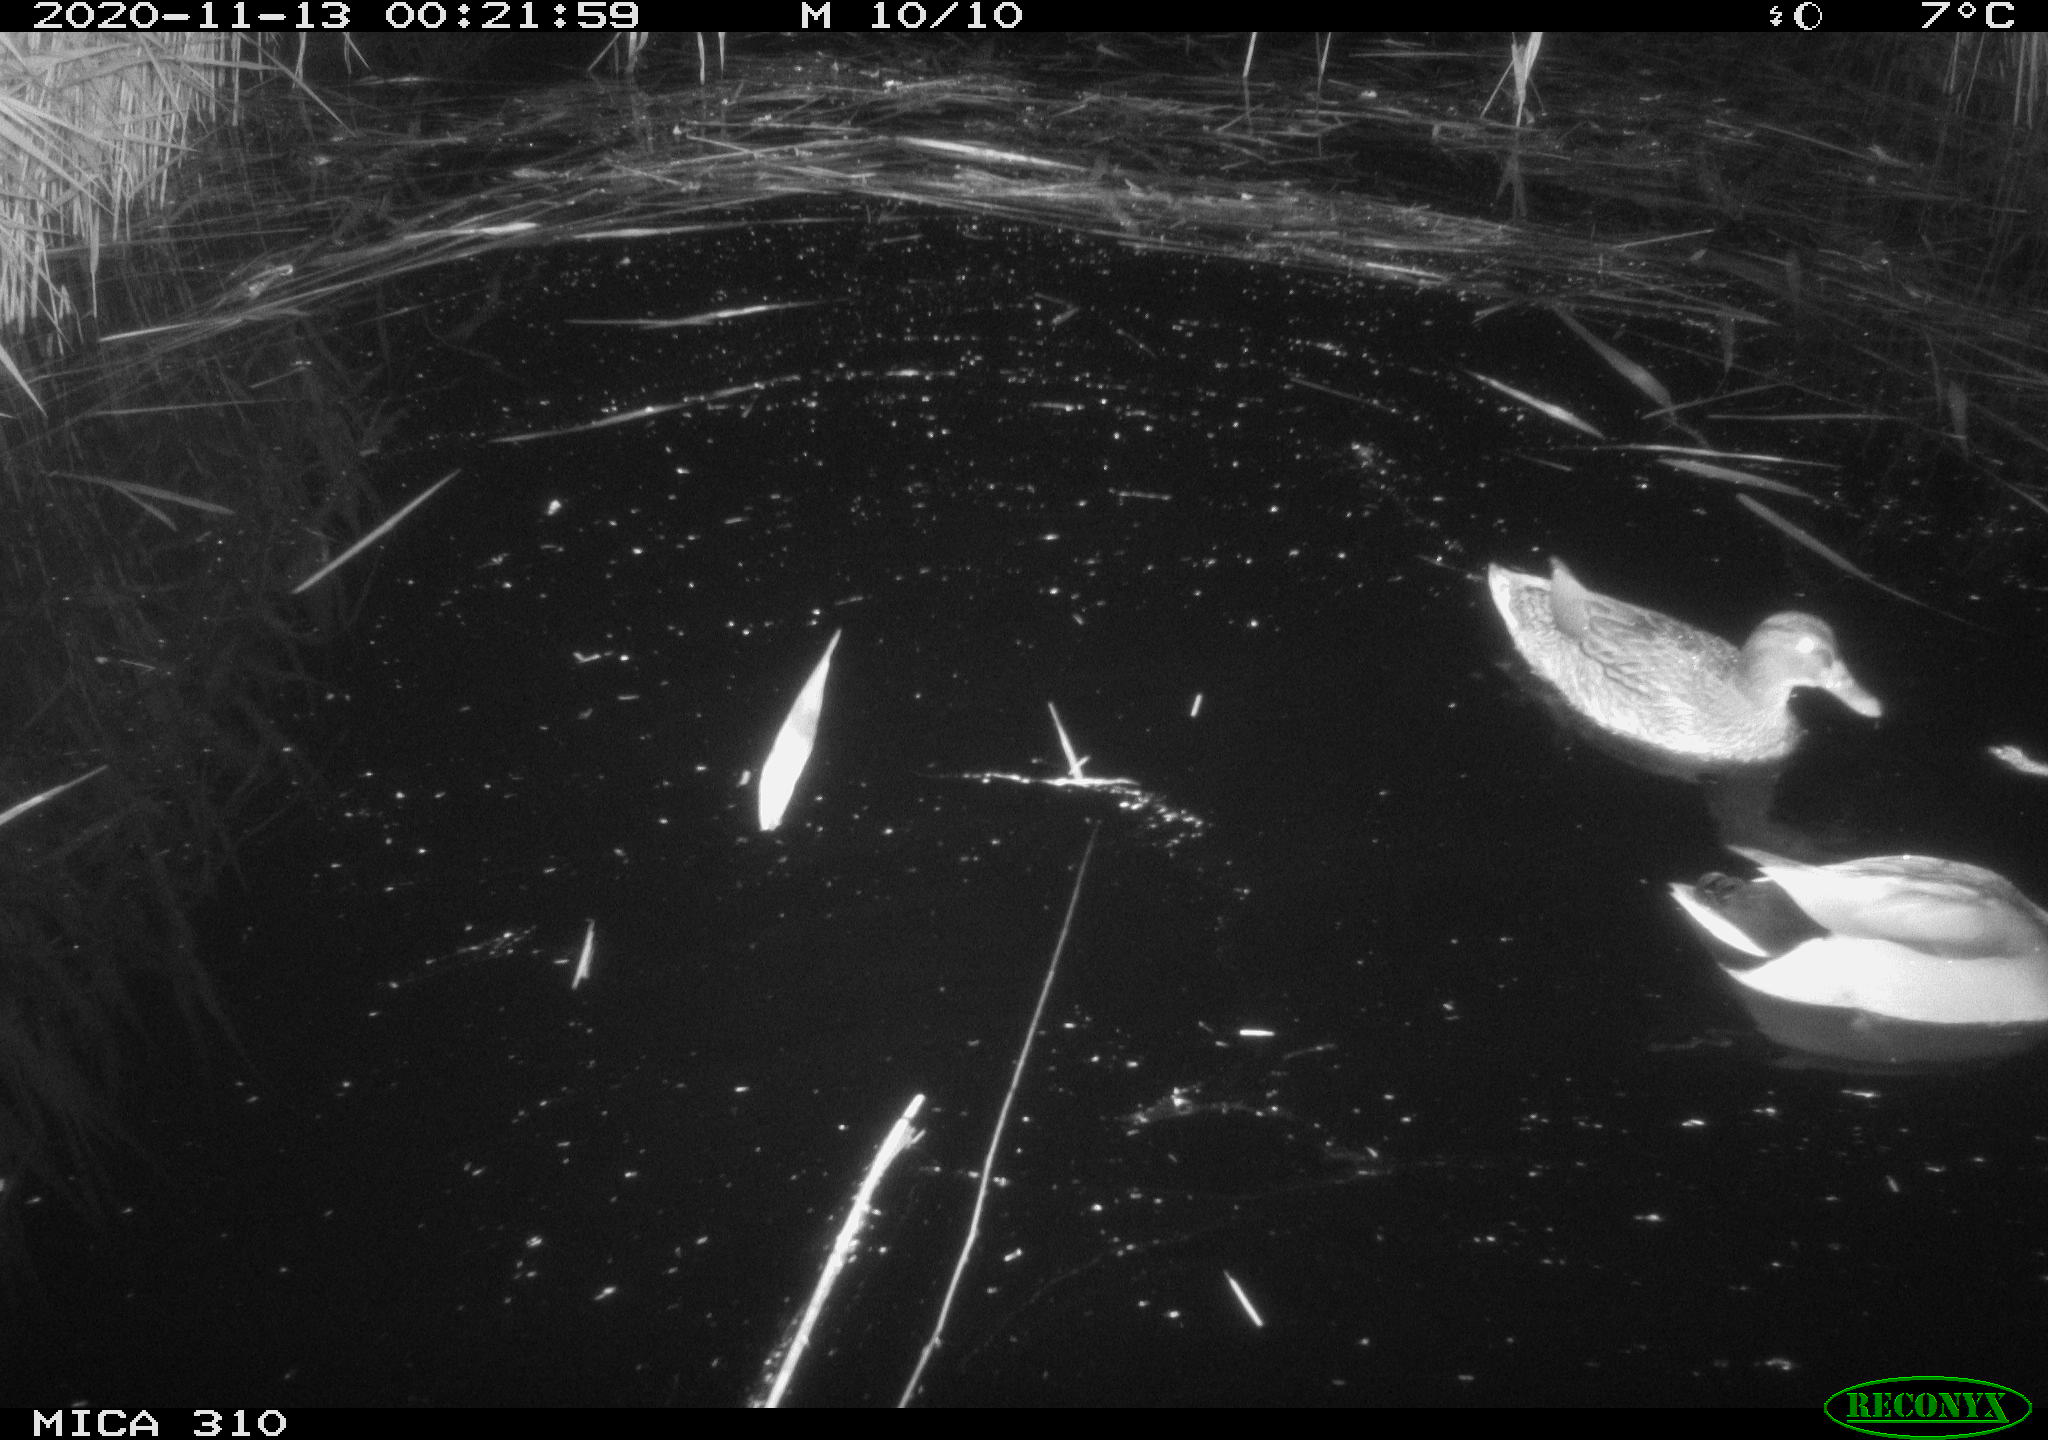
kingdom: Animalia
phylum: Chordata
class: Aves
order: Anseriformes
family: Anatidae
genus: Anas
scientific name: Anas platyrhynchos
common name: Mallard
